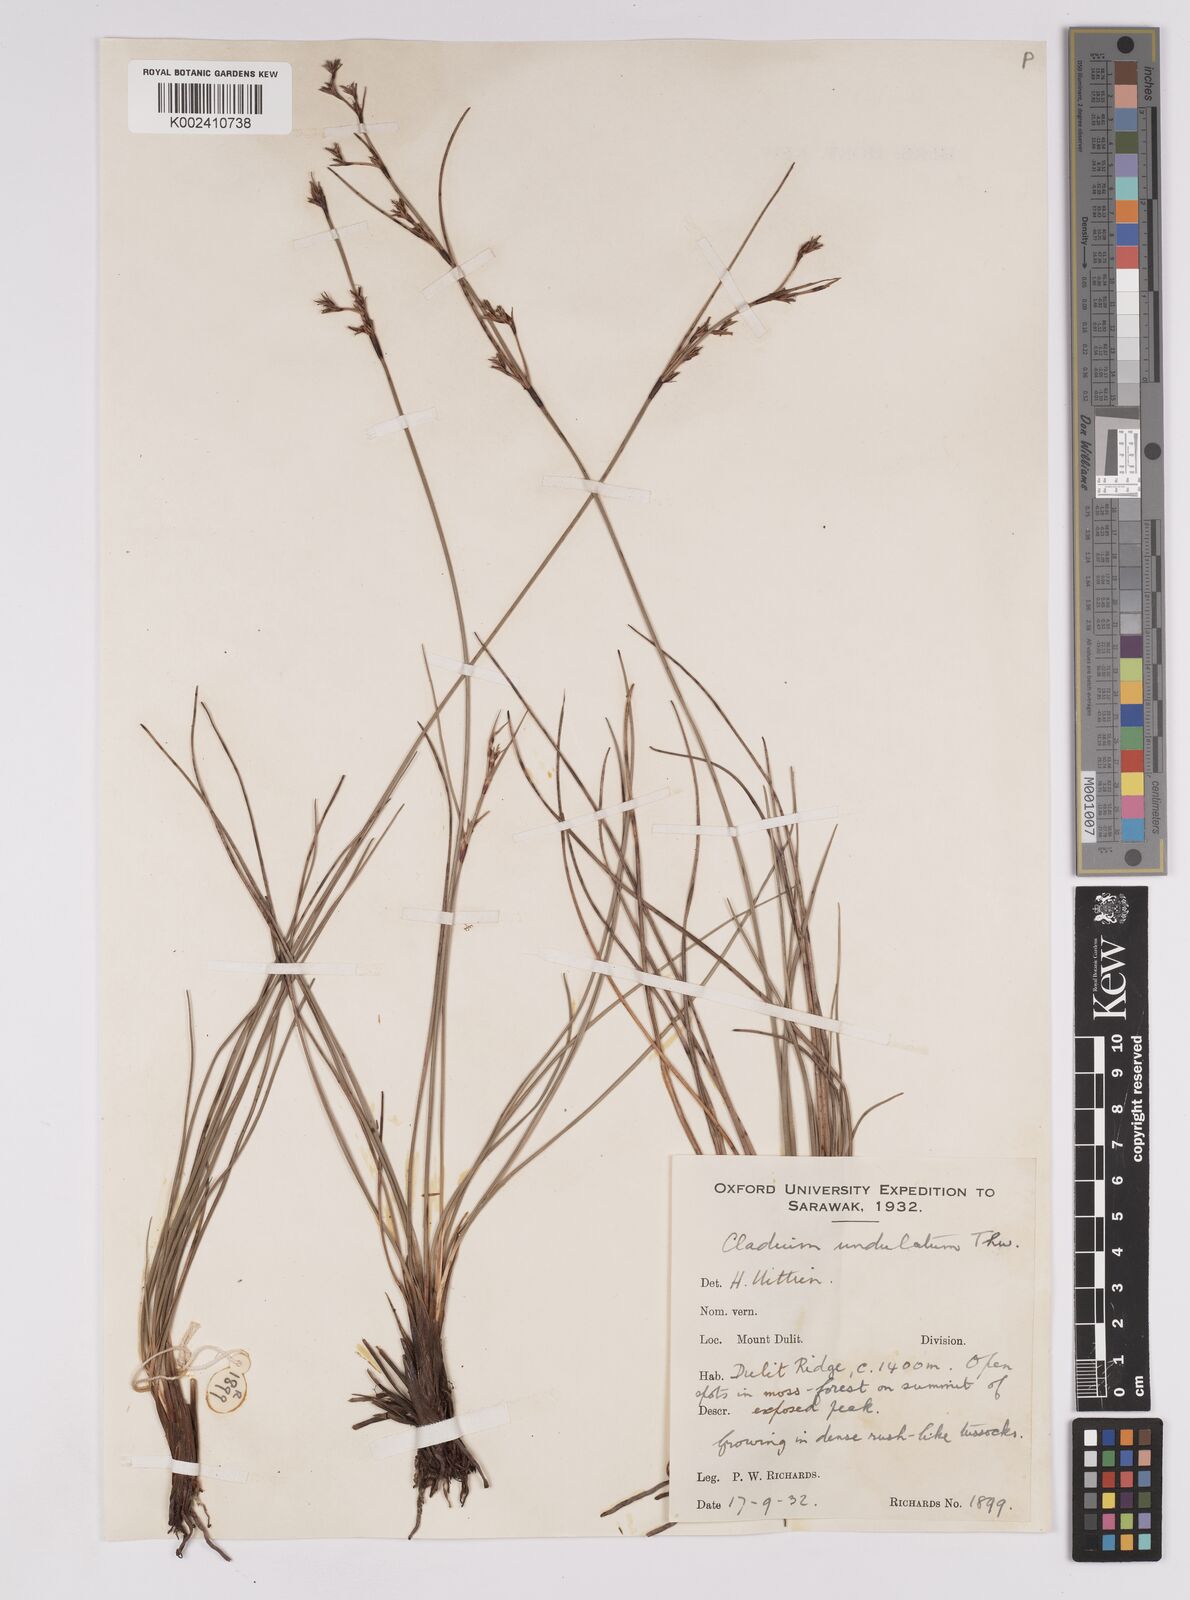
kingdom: Plantae
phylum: Tracheophyta
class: Liliopsida
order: Poales
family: Cyperaceae
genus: Anthelepis
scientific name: Anthelepis undulata
